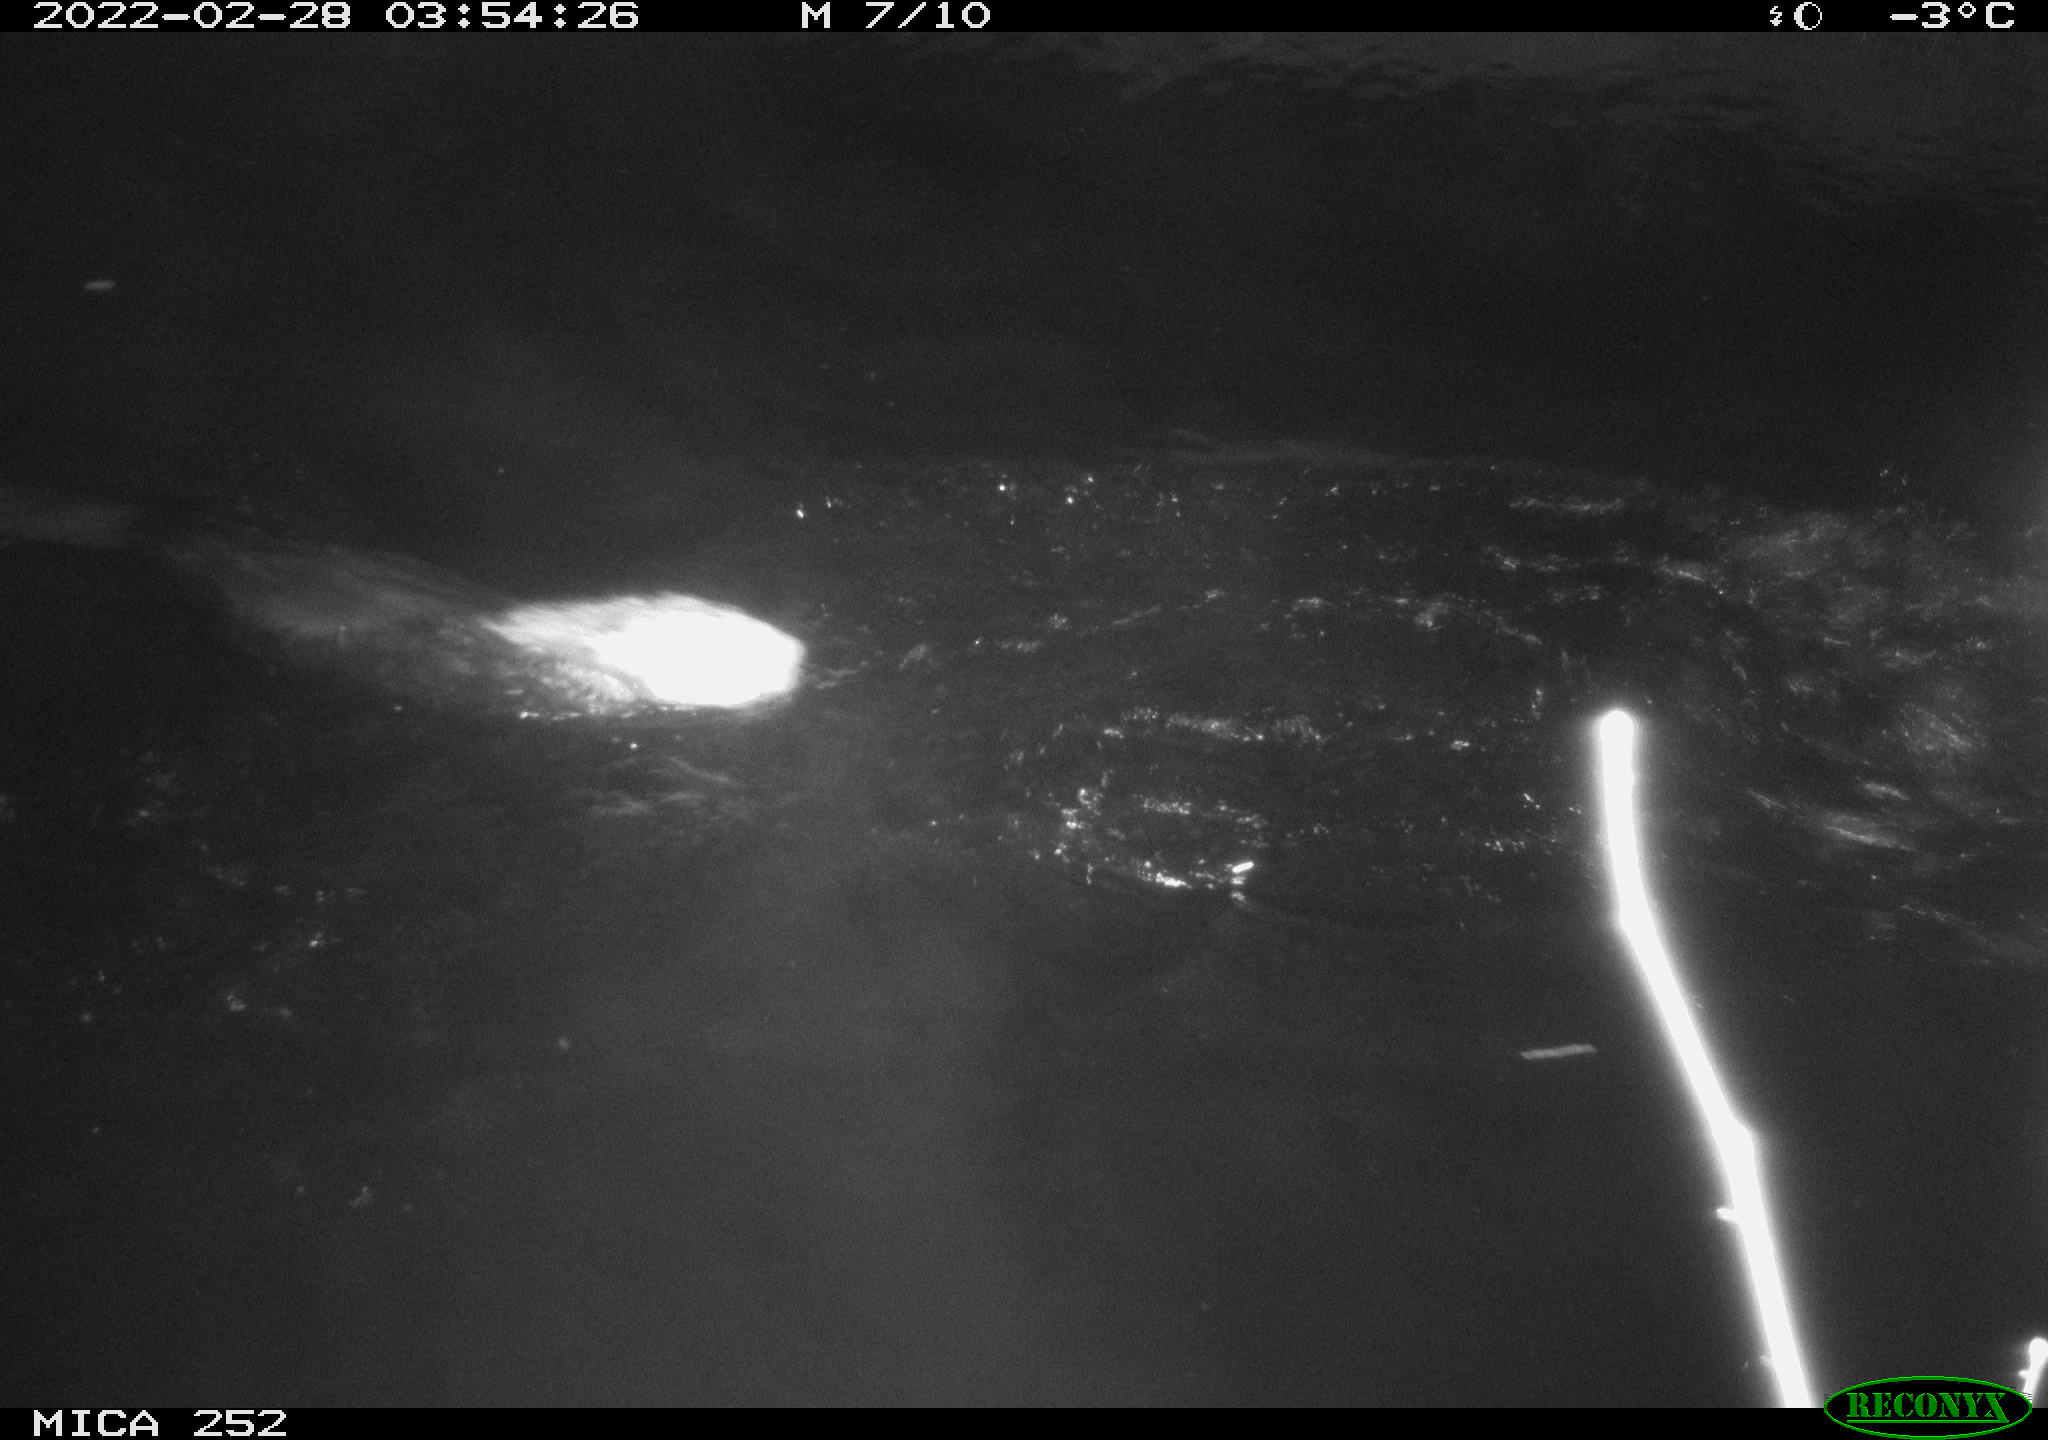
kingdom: Animalia
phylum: Chordata
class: Mammalia
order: Rodentia
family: Castoridae
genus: Castor
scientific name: Castor fiber
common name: Eurasian beaver
